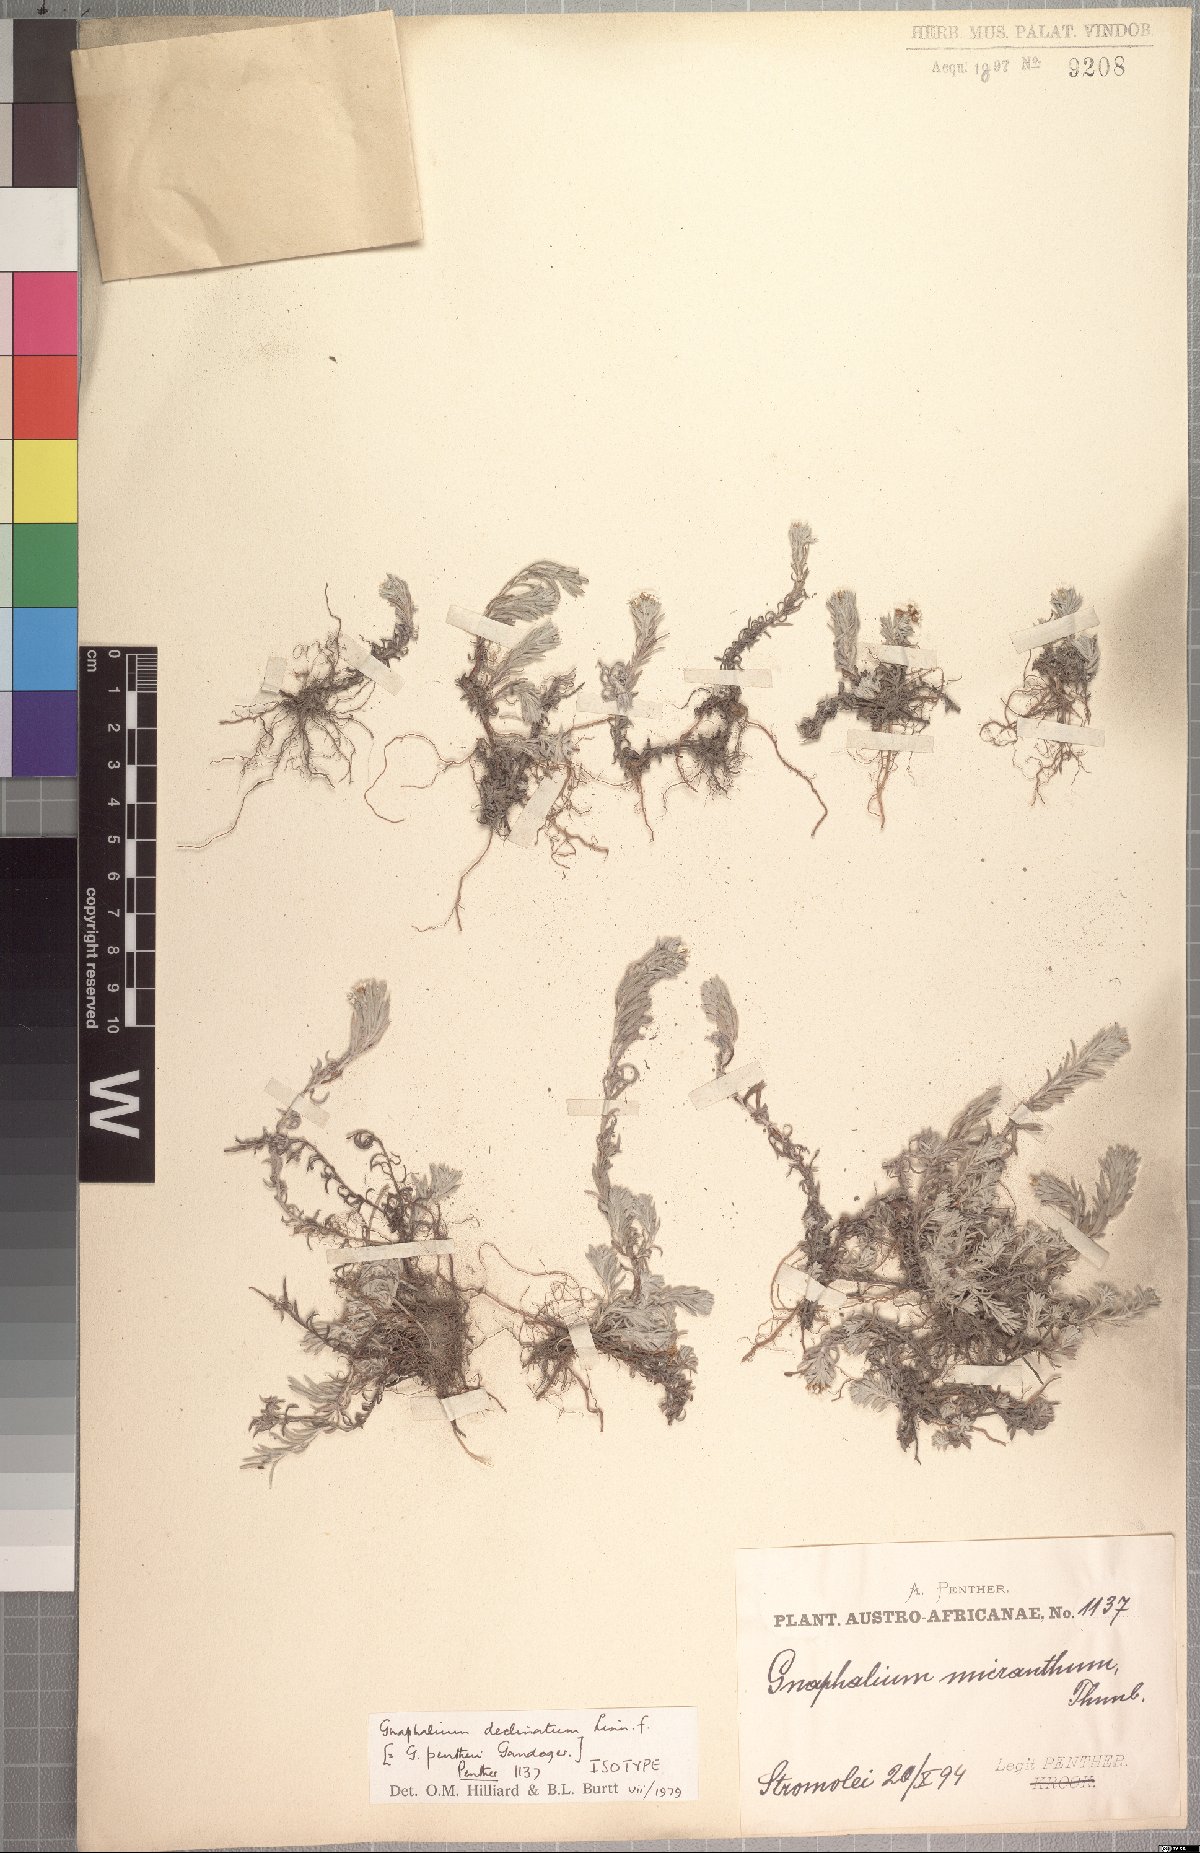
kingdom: Plantae
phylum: Tracheophyta
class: Magnoliopsida
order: Asterales
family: Asteraceae
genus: Gnaphalium
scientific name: Gnaphalium declinatum
